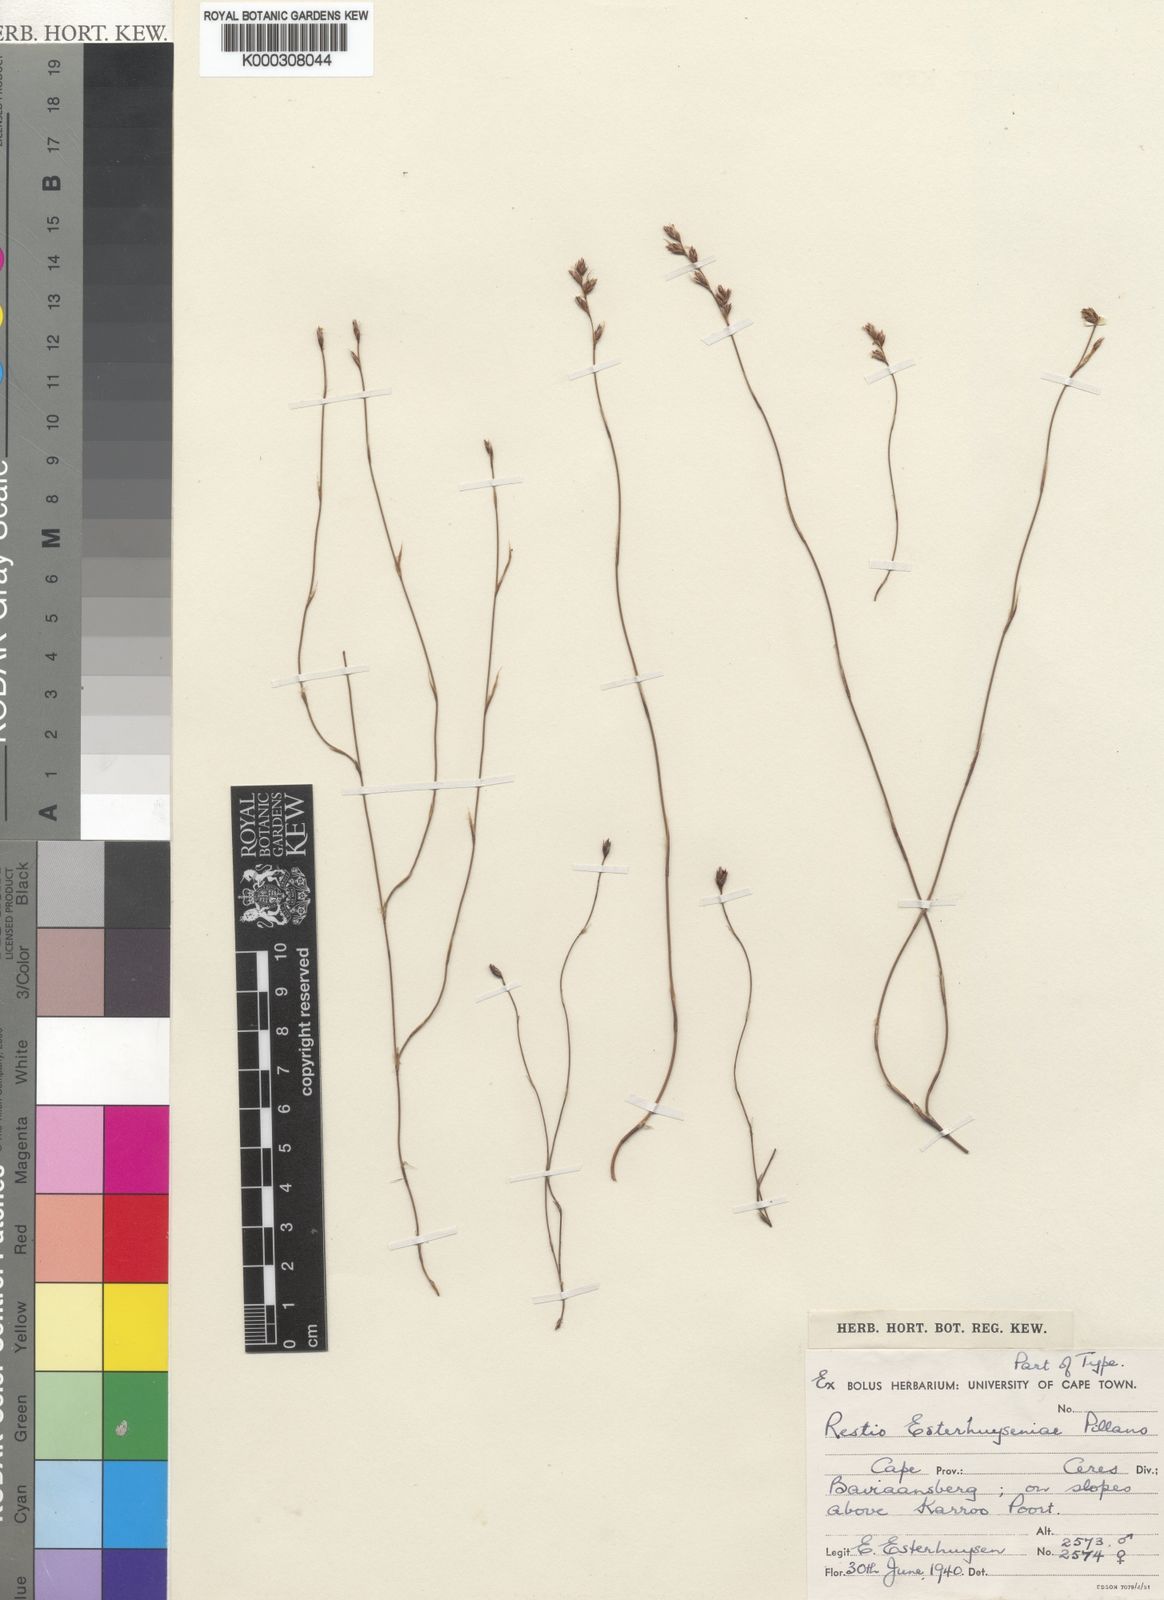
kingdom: Plantae
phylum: Tracheophyta
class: Liliopsida
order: Poales
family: Restionaceae
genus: Restio
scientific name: Restio esterhuyseniae
